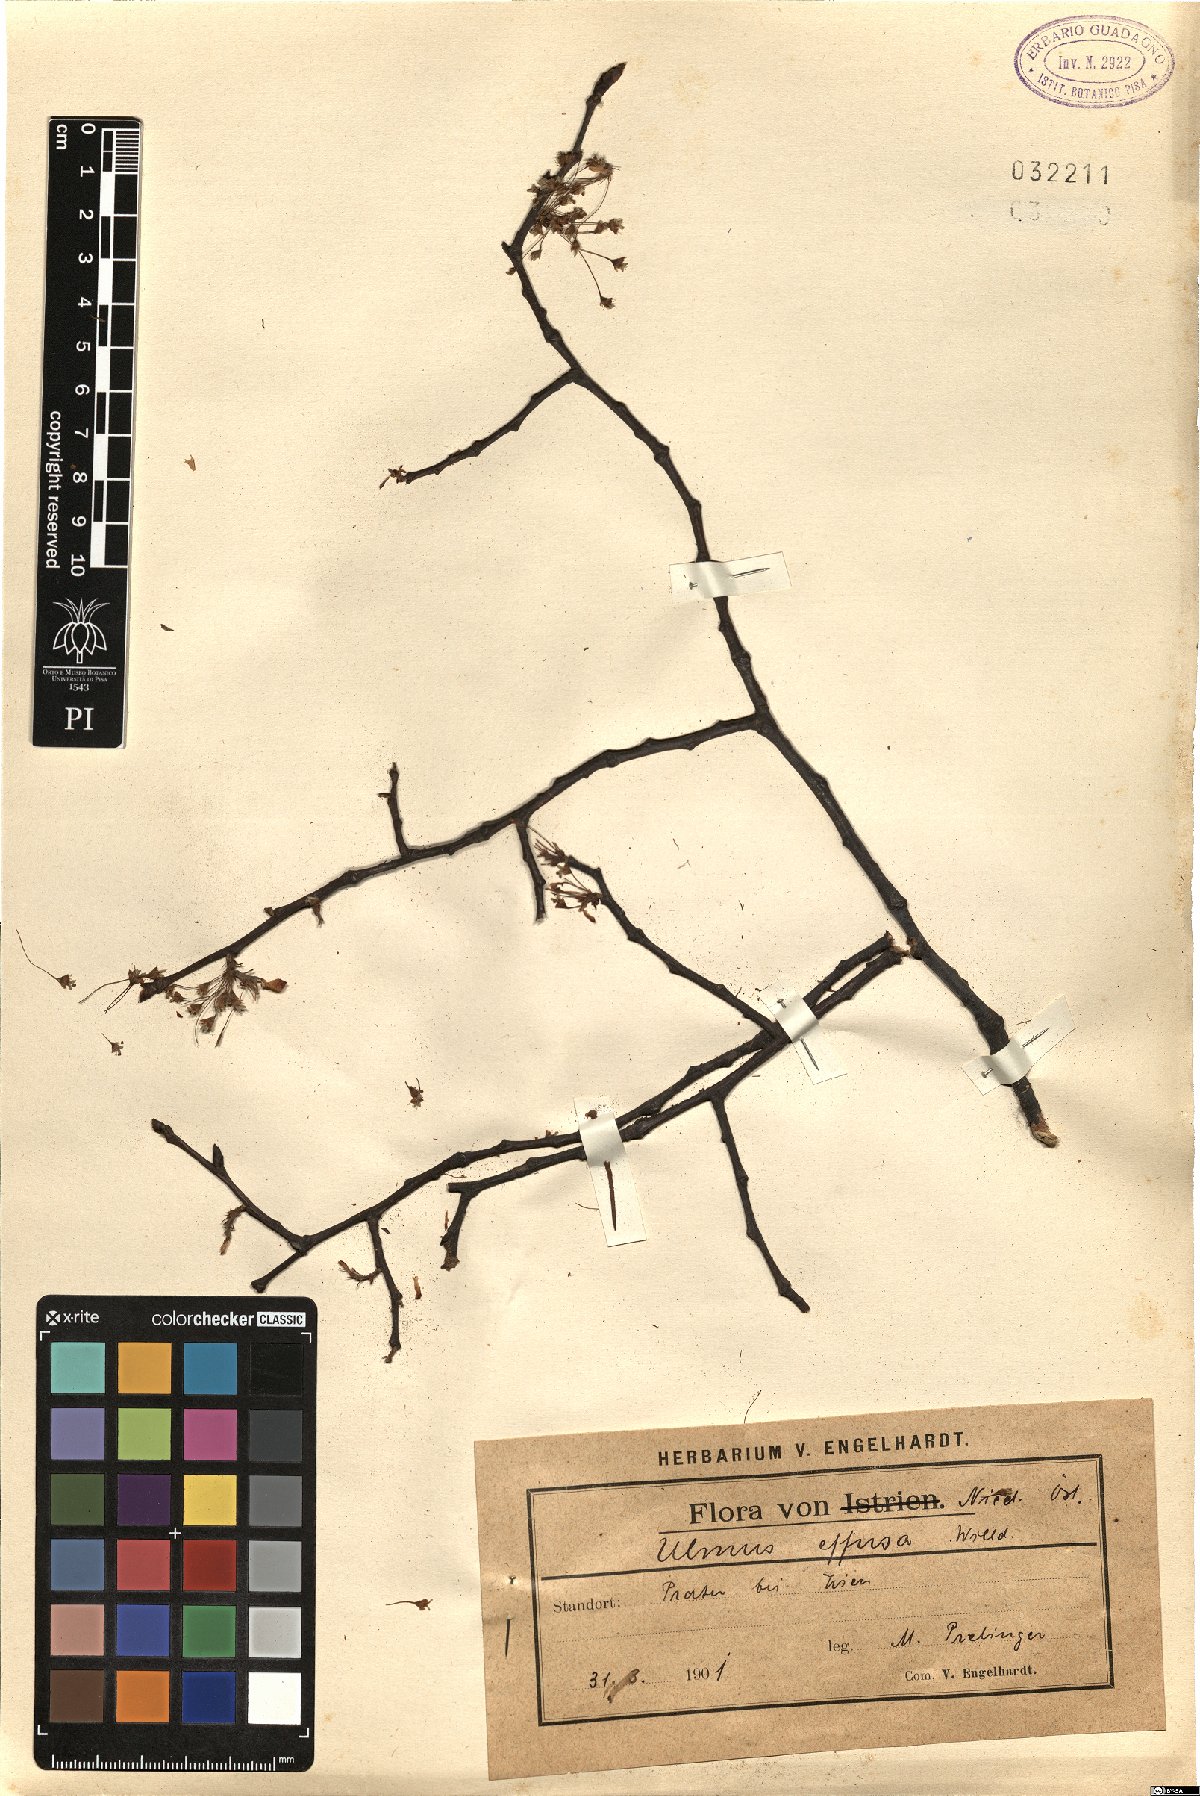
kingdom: Plantae
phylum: Tracheophyta
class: Magnoliopsida
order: Rosales
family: Ulmaceae
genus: Ulmus
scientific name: Ulmus laevis
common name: European white-elm
